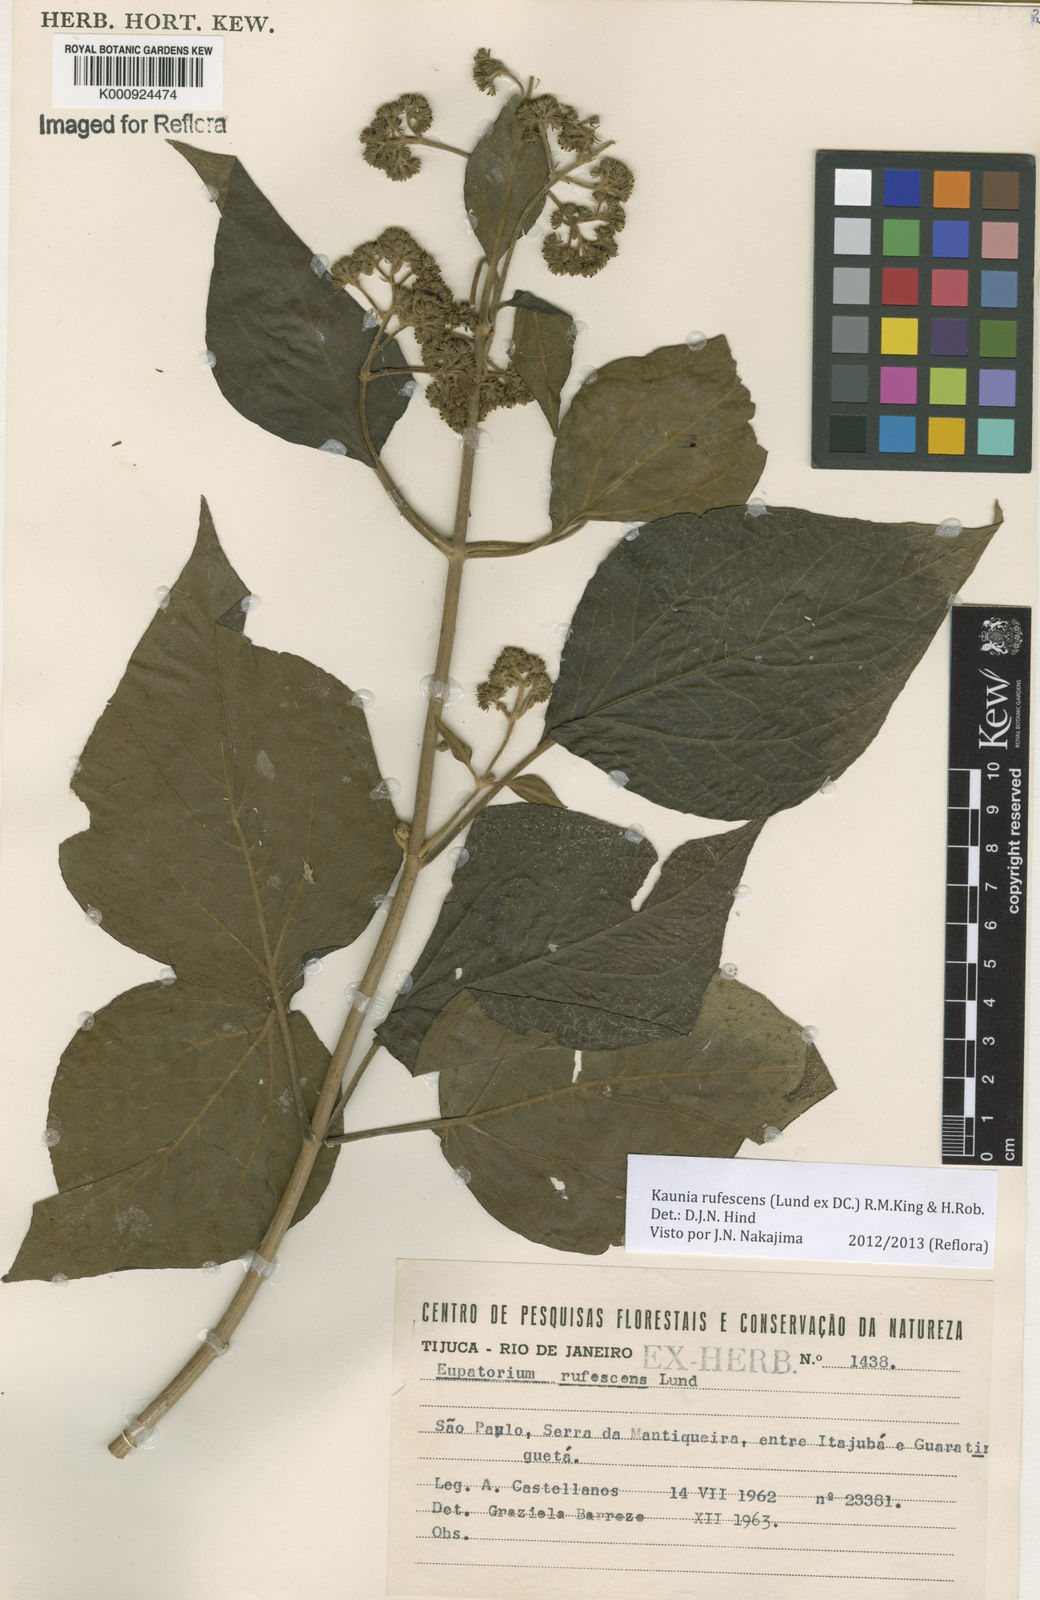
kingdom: Plantae
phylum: Tracheophyta
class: Magnoliopsida
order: Asterales
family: Asteraceae
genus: Kaunia
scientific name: Kaunia rufescens
